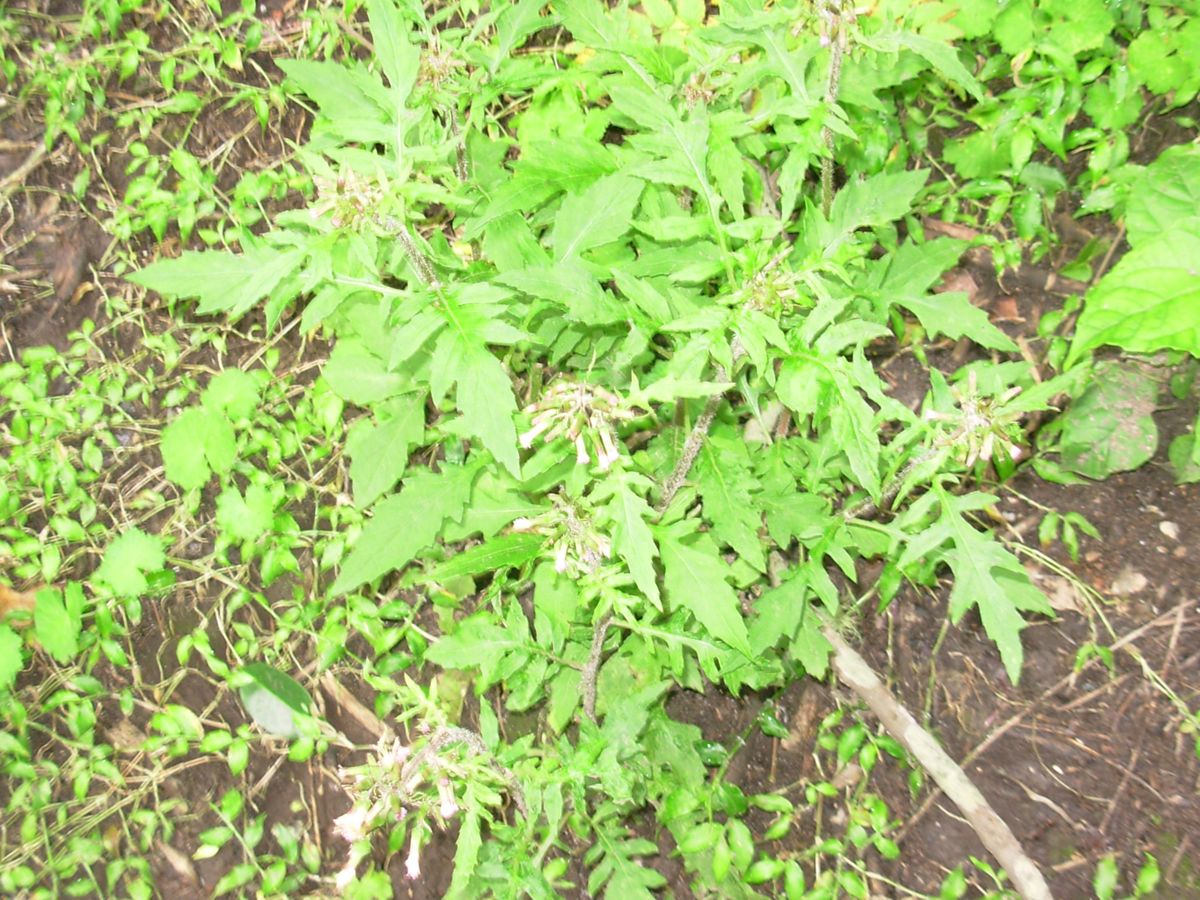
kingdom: Plantae
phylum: Tracheophyta
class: Magnoliopsida
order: Asterales
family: Asteraceae
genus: Erechtites
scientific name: Erechtites valerianifolius
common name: Tropical burnweed
